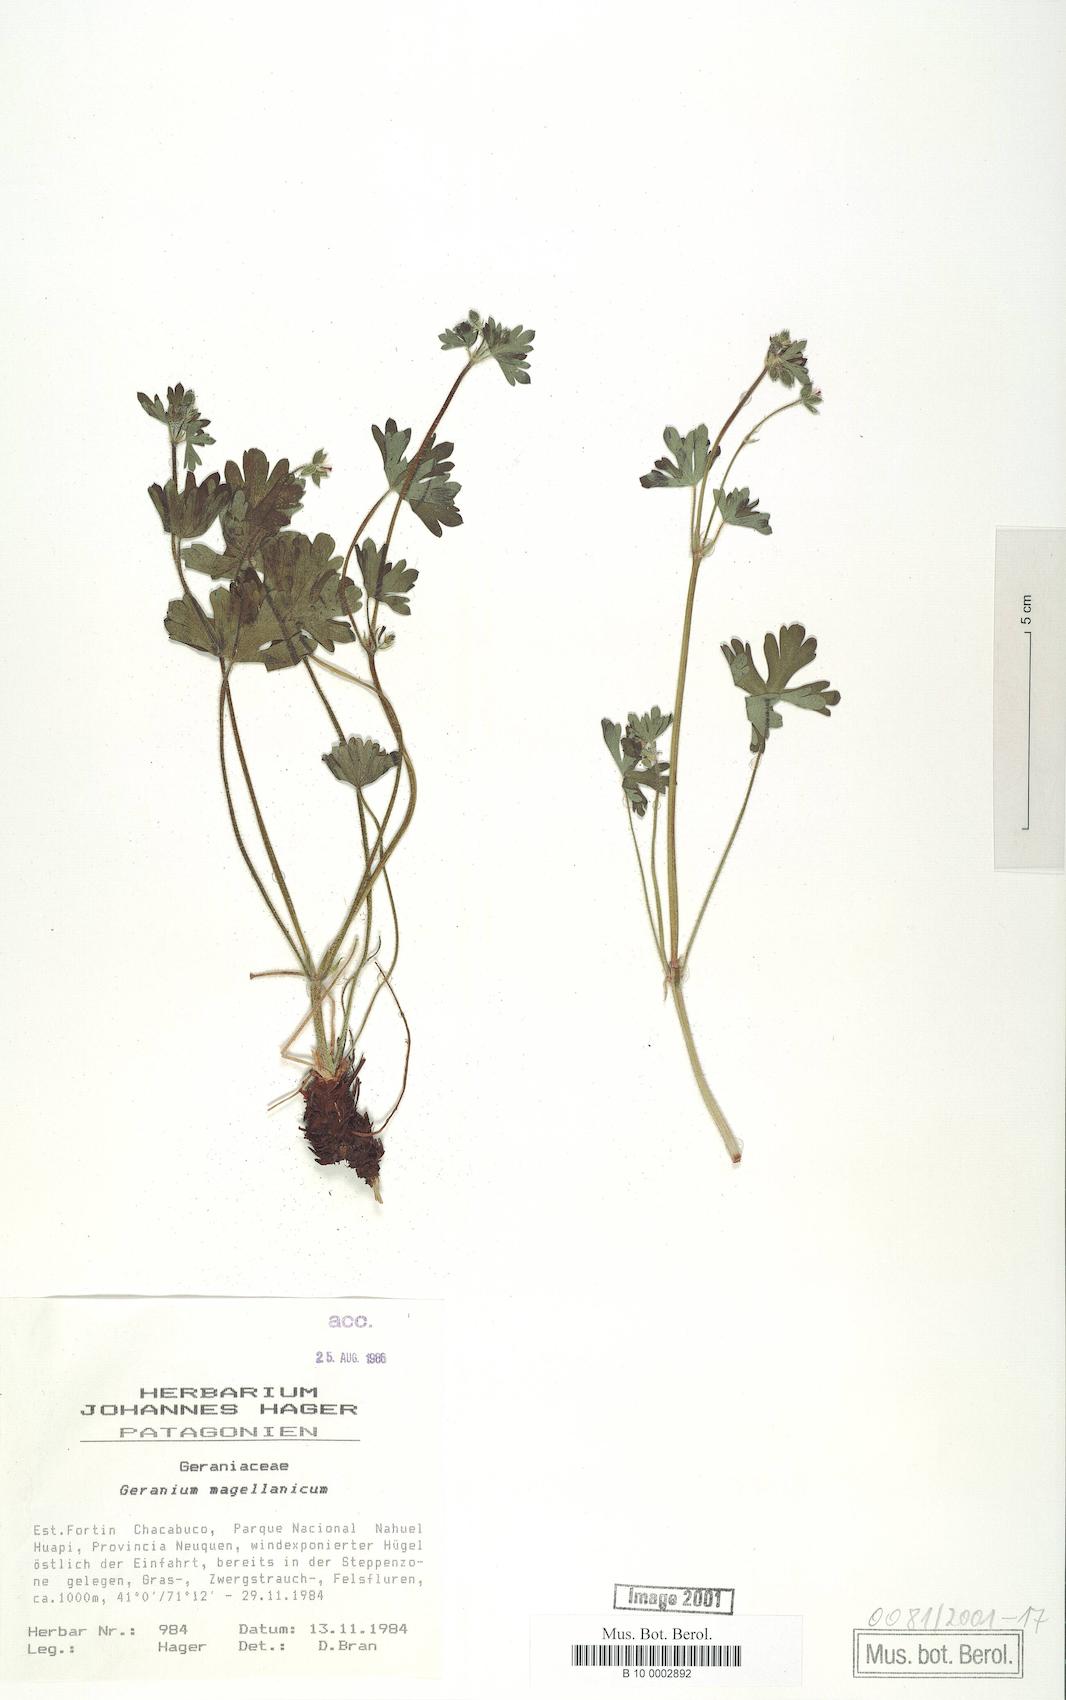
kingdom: Plantae
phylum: Tracheophyta
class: Magnoliopsida
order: Geraniales
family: Geraniaceae
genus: Geranium
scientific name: Geranium magellanicum
